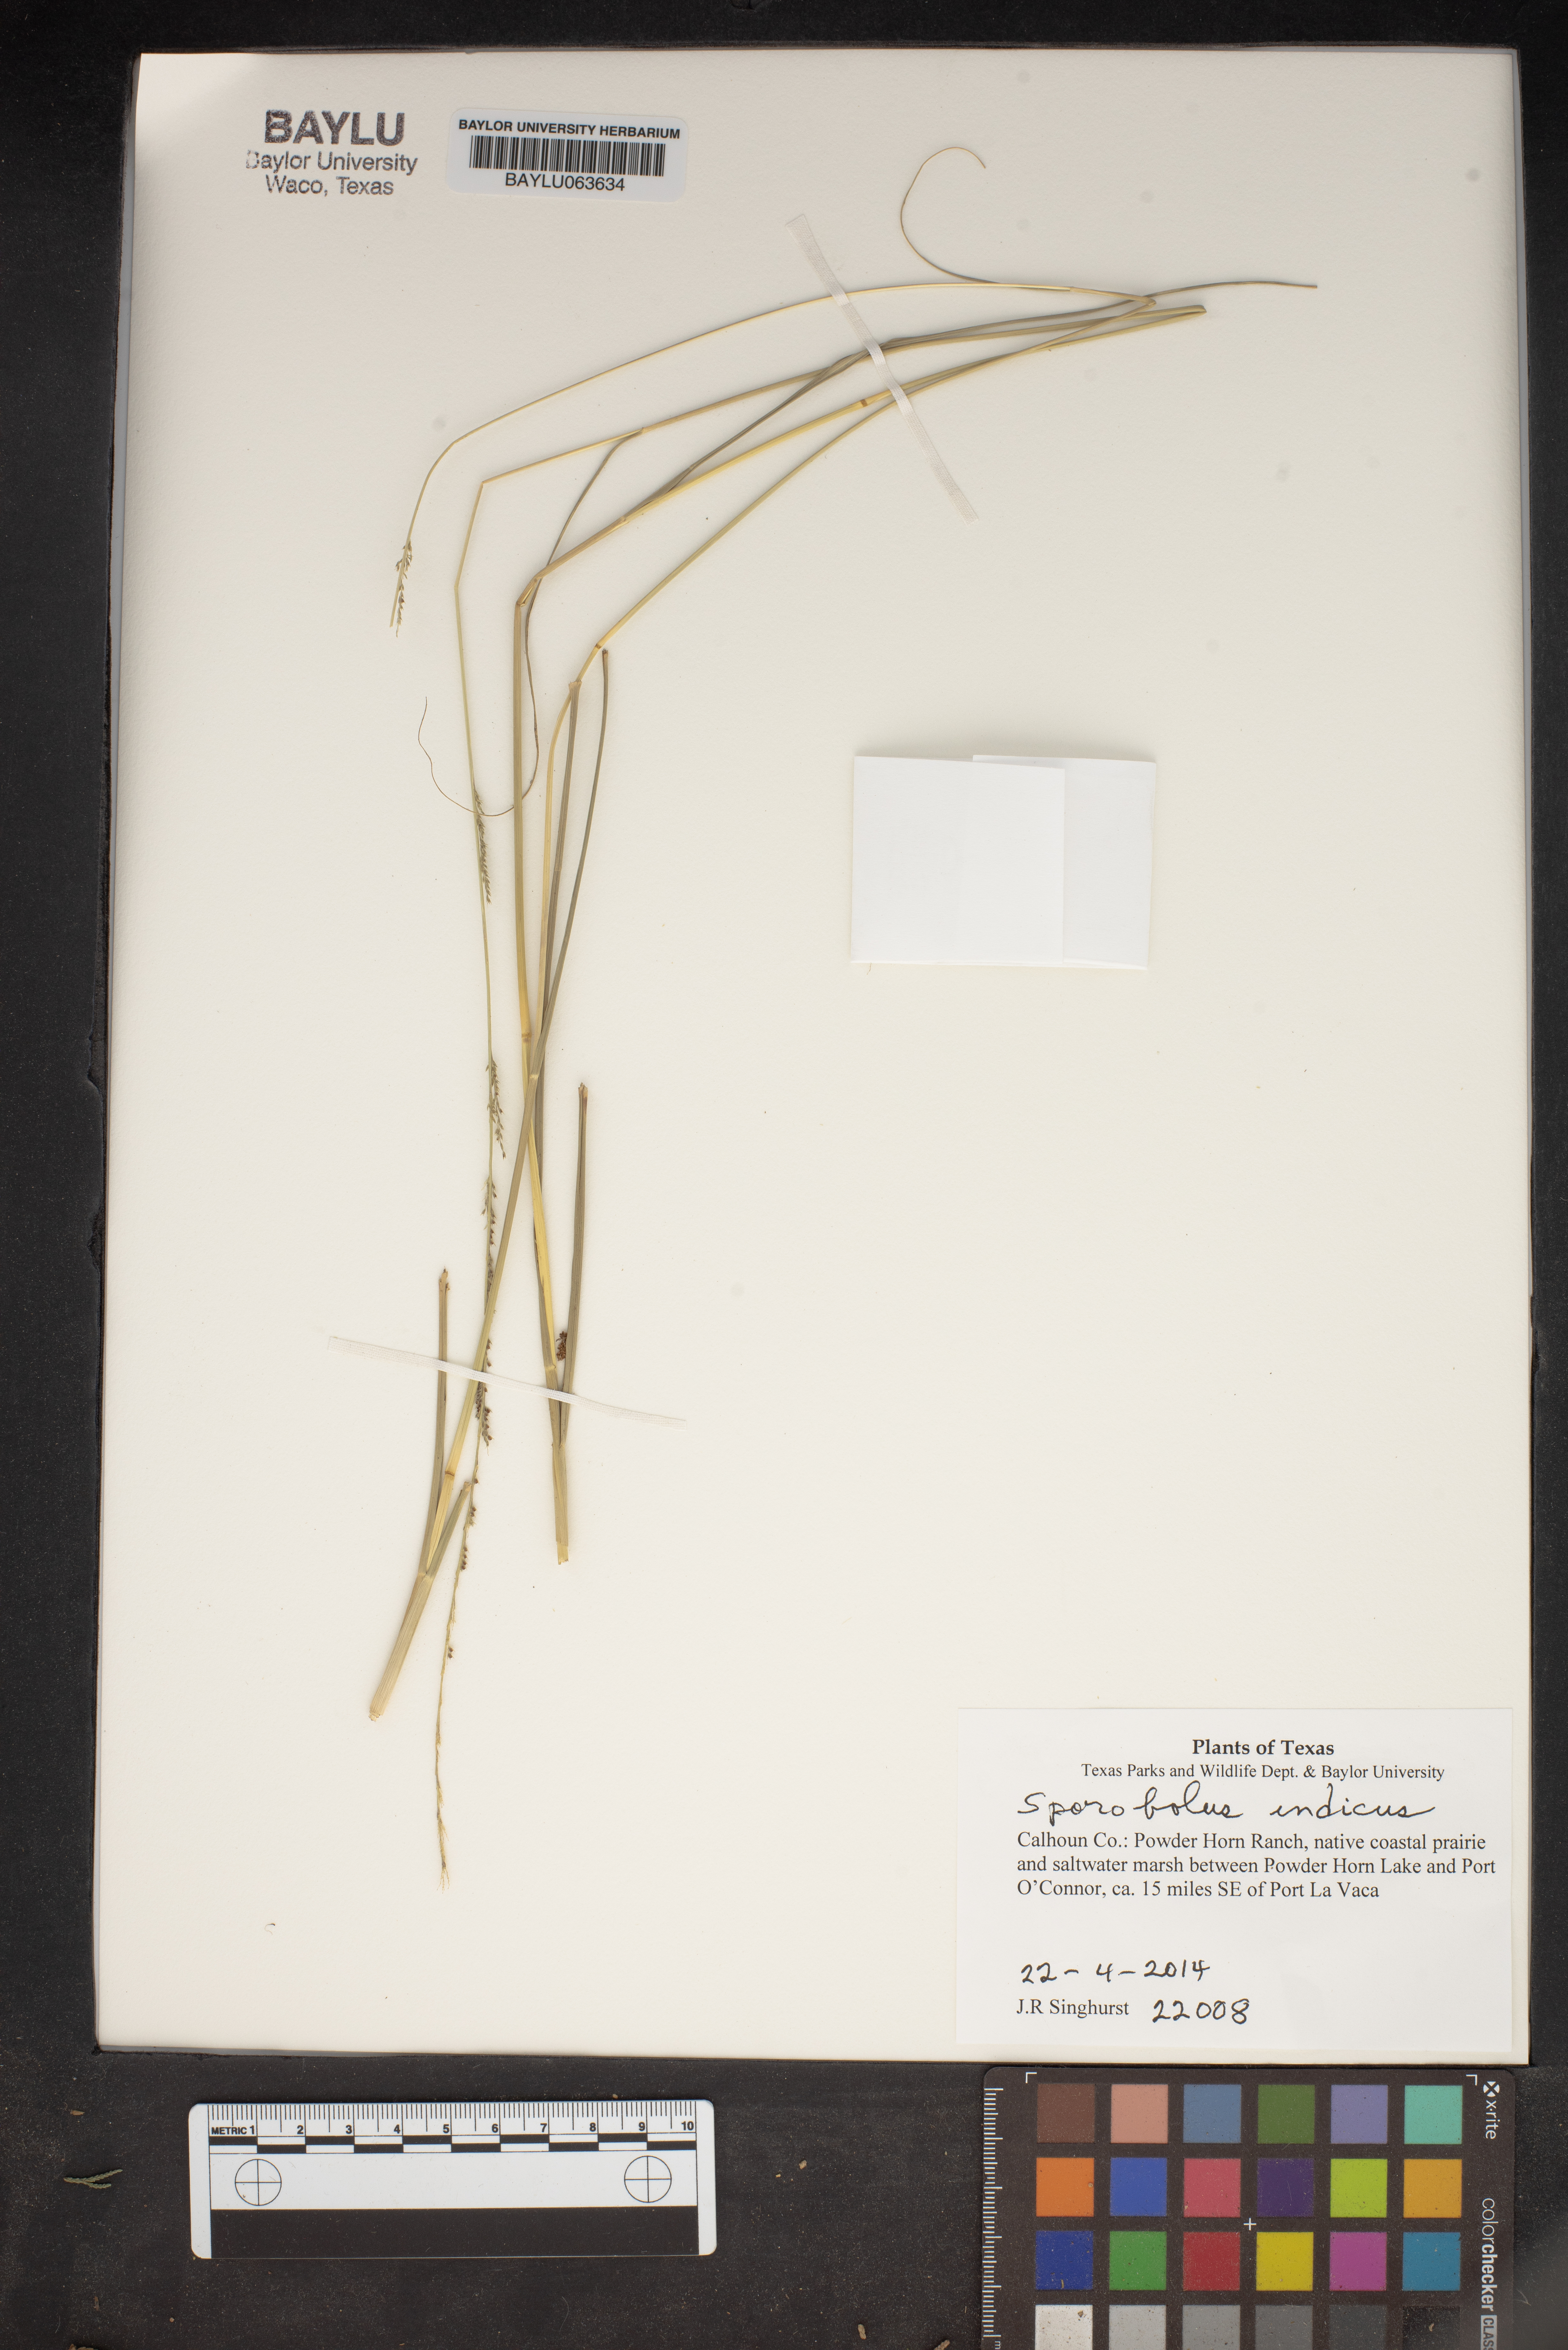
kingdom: Plantae
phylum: Tracheophyta
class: Liliopsida
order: Poales
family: Poaceae
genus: Sporobolus
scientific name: Sporobolus indicus
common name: Smut grass
